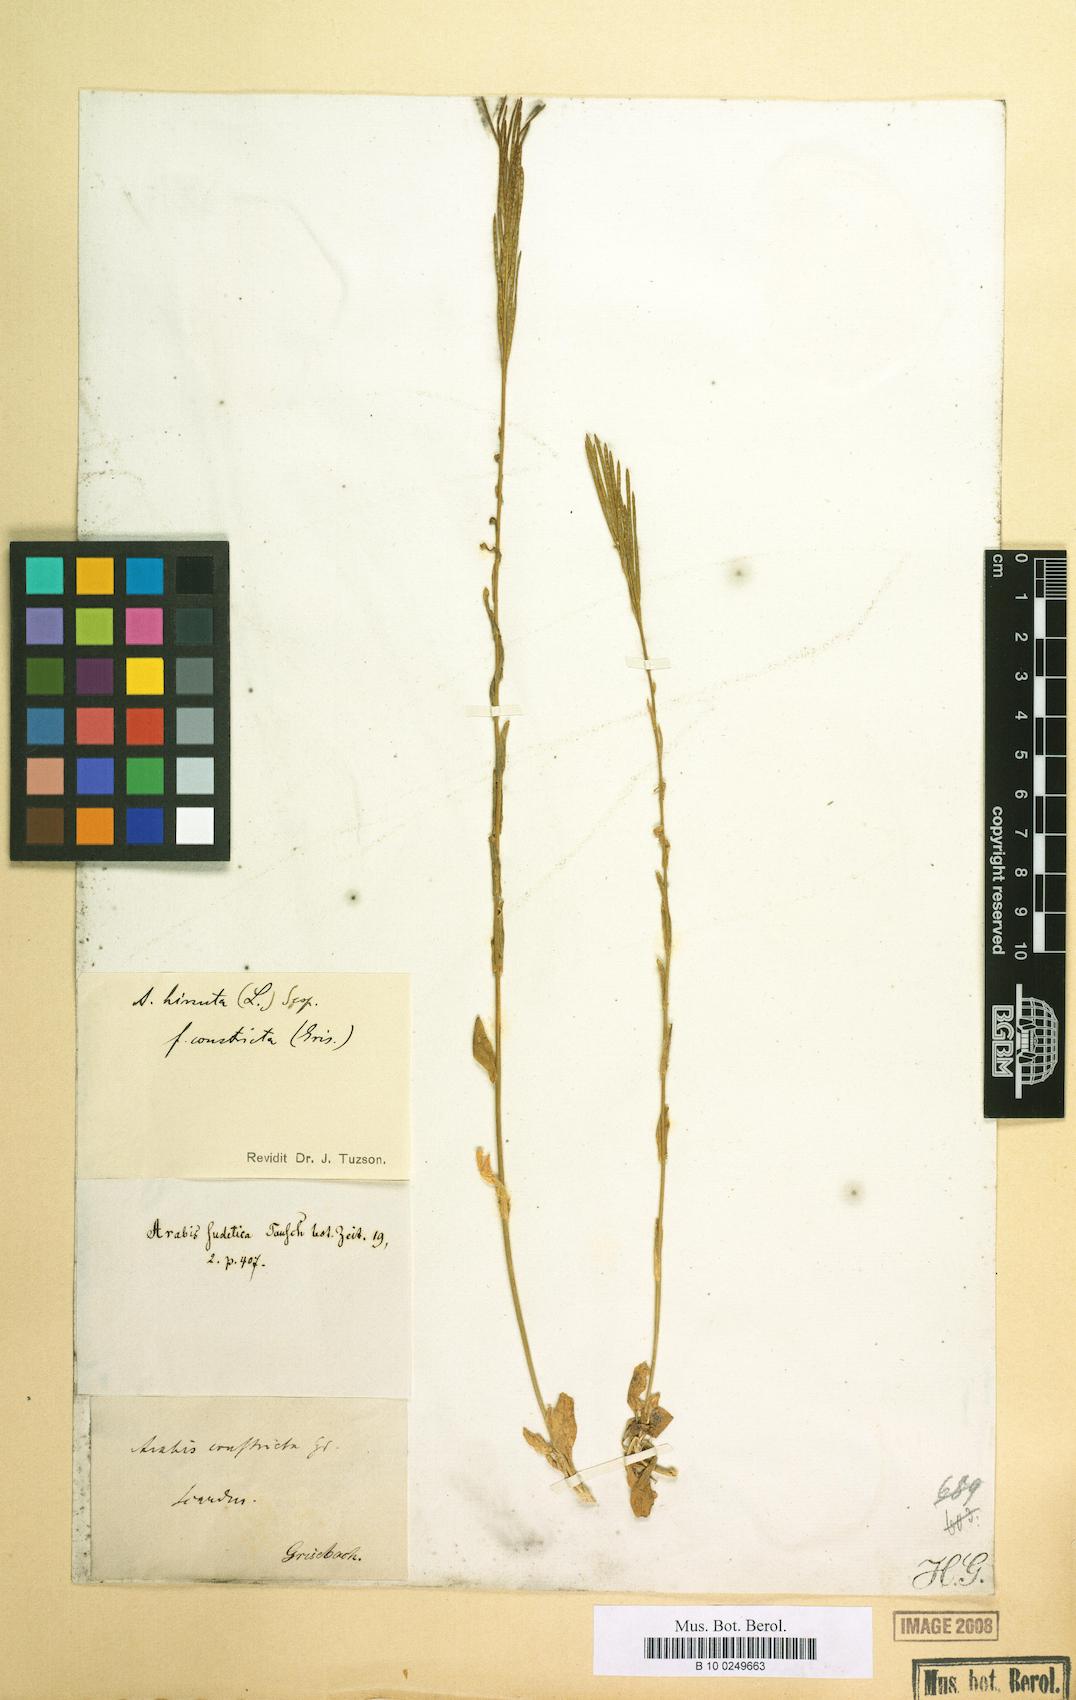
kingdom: Plantae
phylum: Tracheophyta
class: Magnoliopsida
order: Brassicales
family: Brassicaceae
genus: Arabis
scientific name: Arabis allionii
